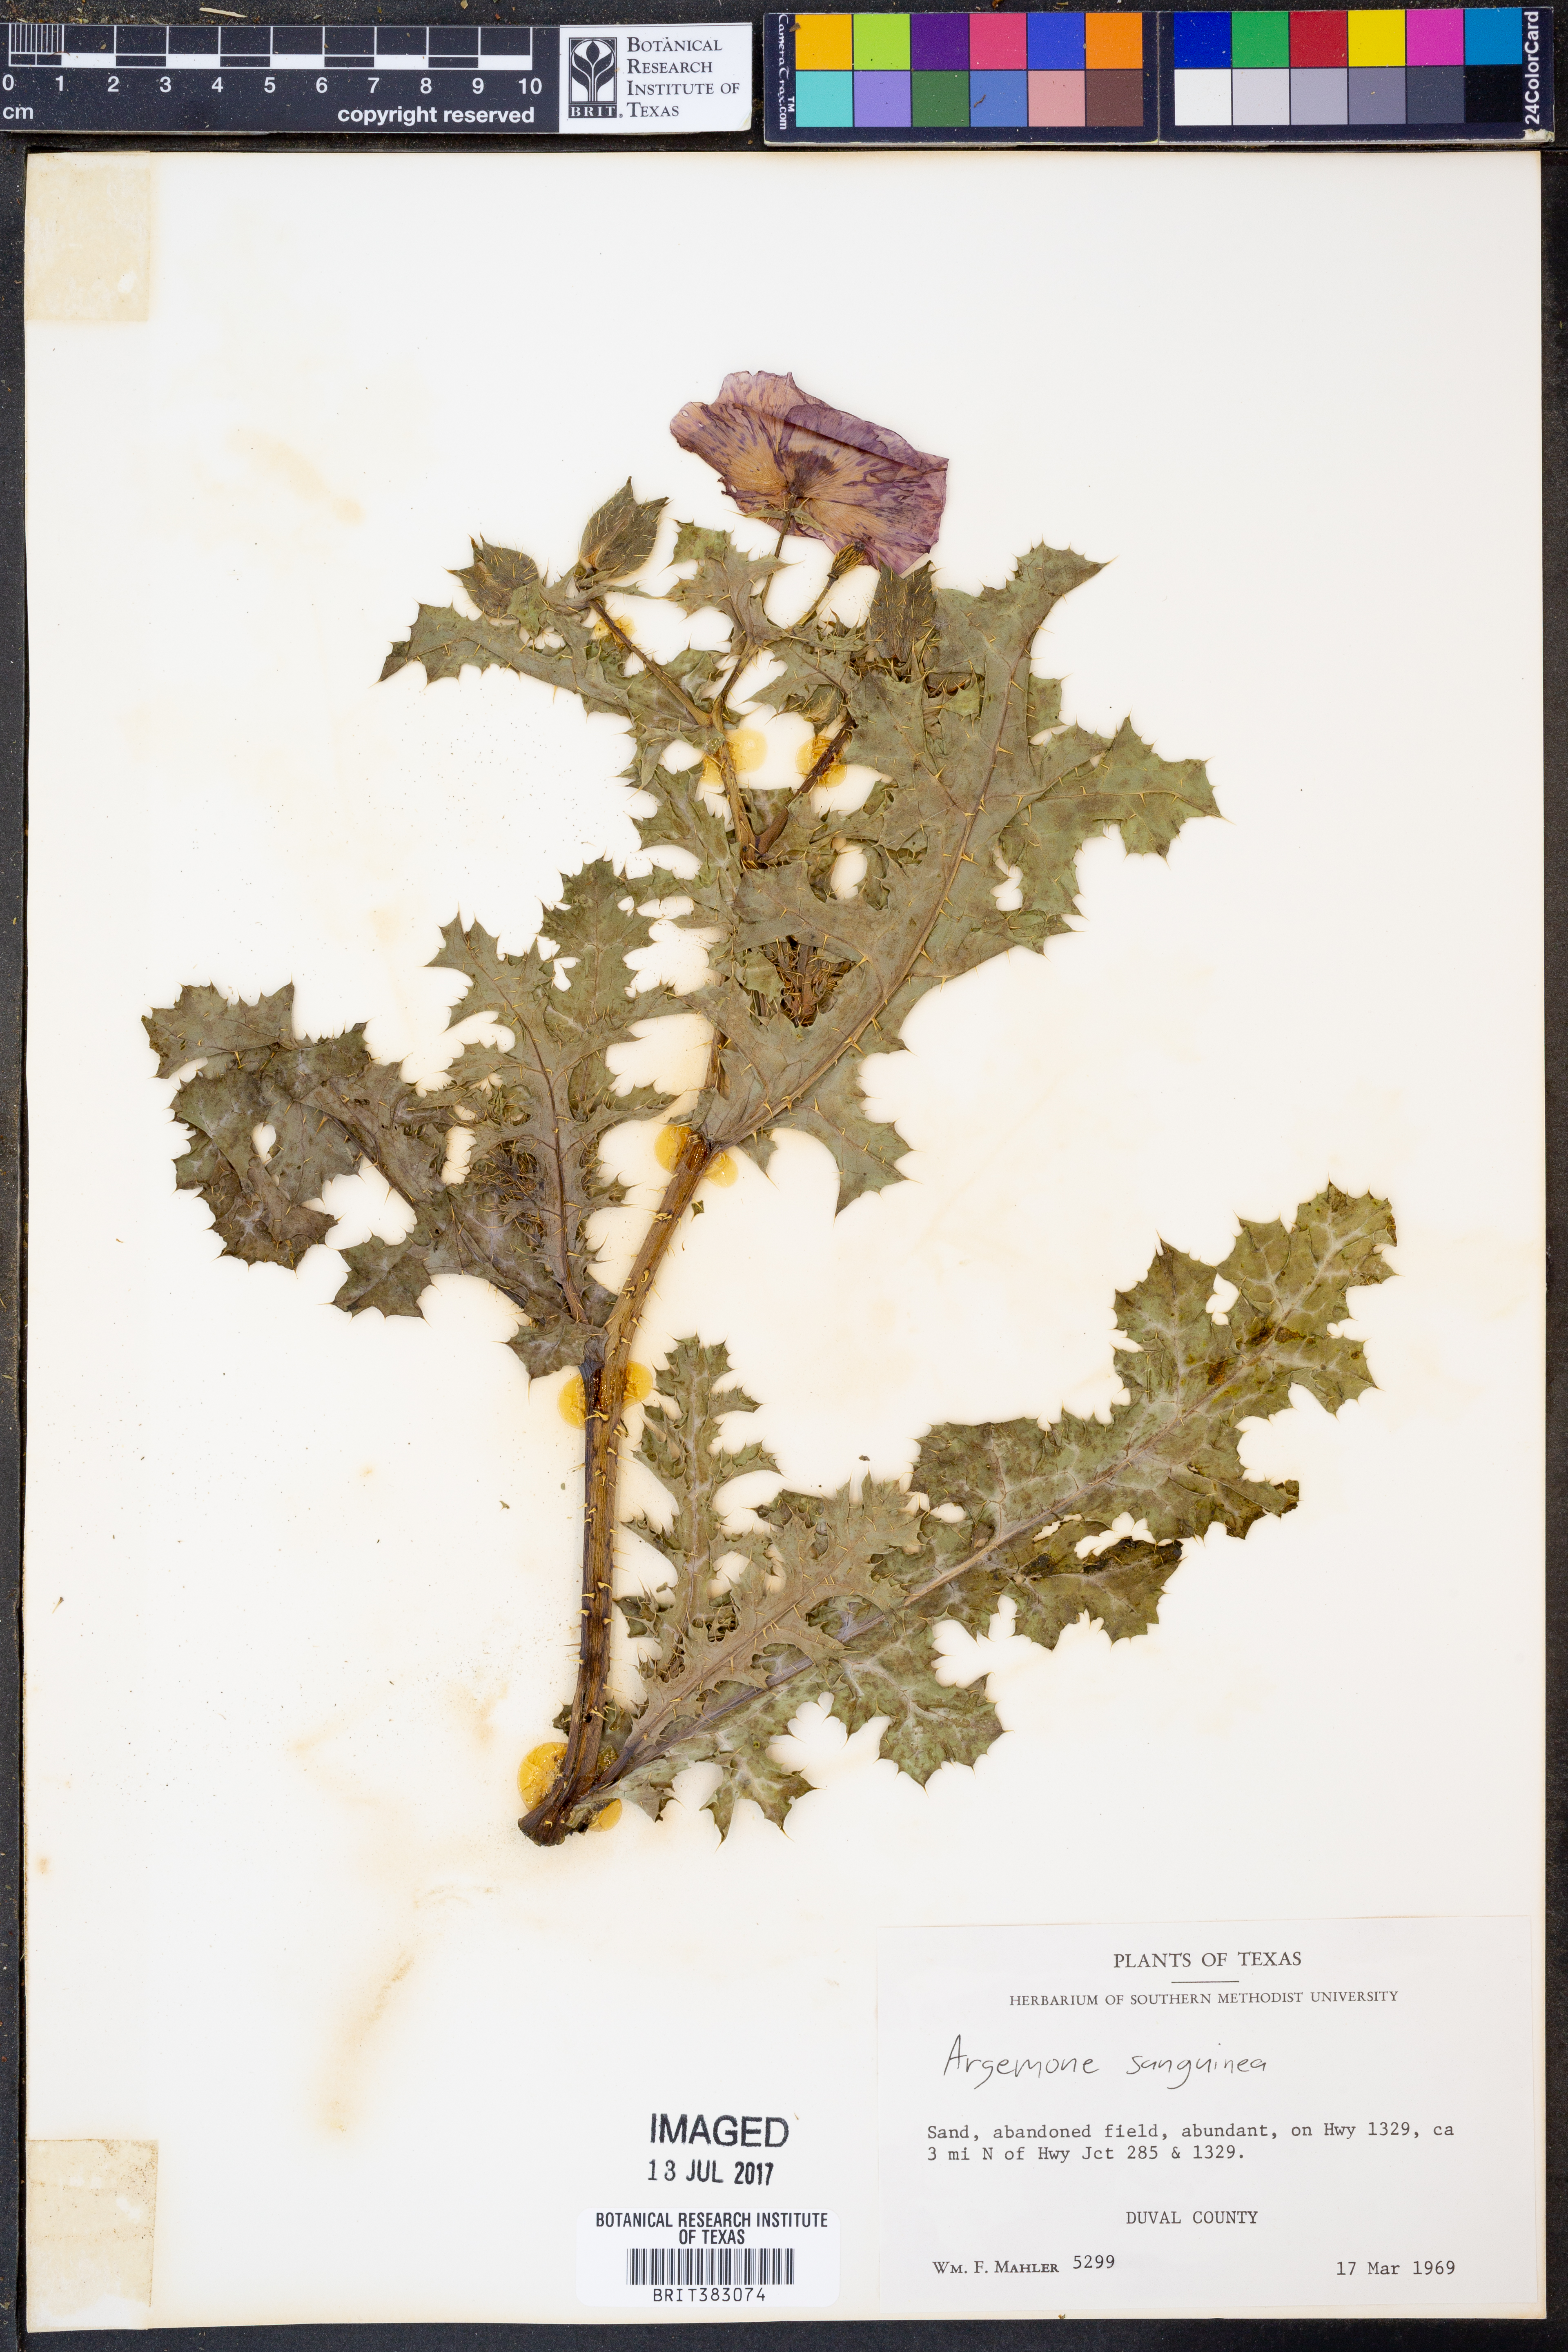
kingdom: Plantae
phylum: Tracheophyta
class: Magnoliopsida
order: Ranunculales
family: Papaveraceae
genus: Argemone
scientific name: Argemone sanguinea
